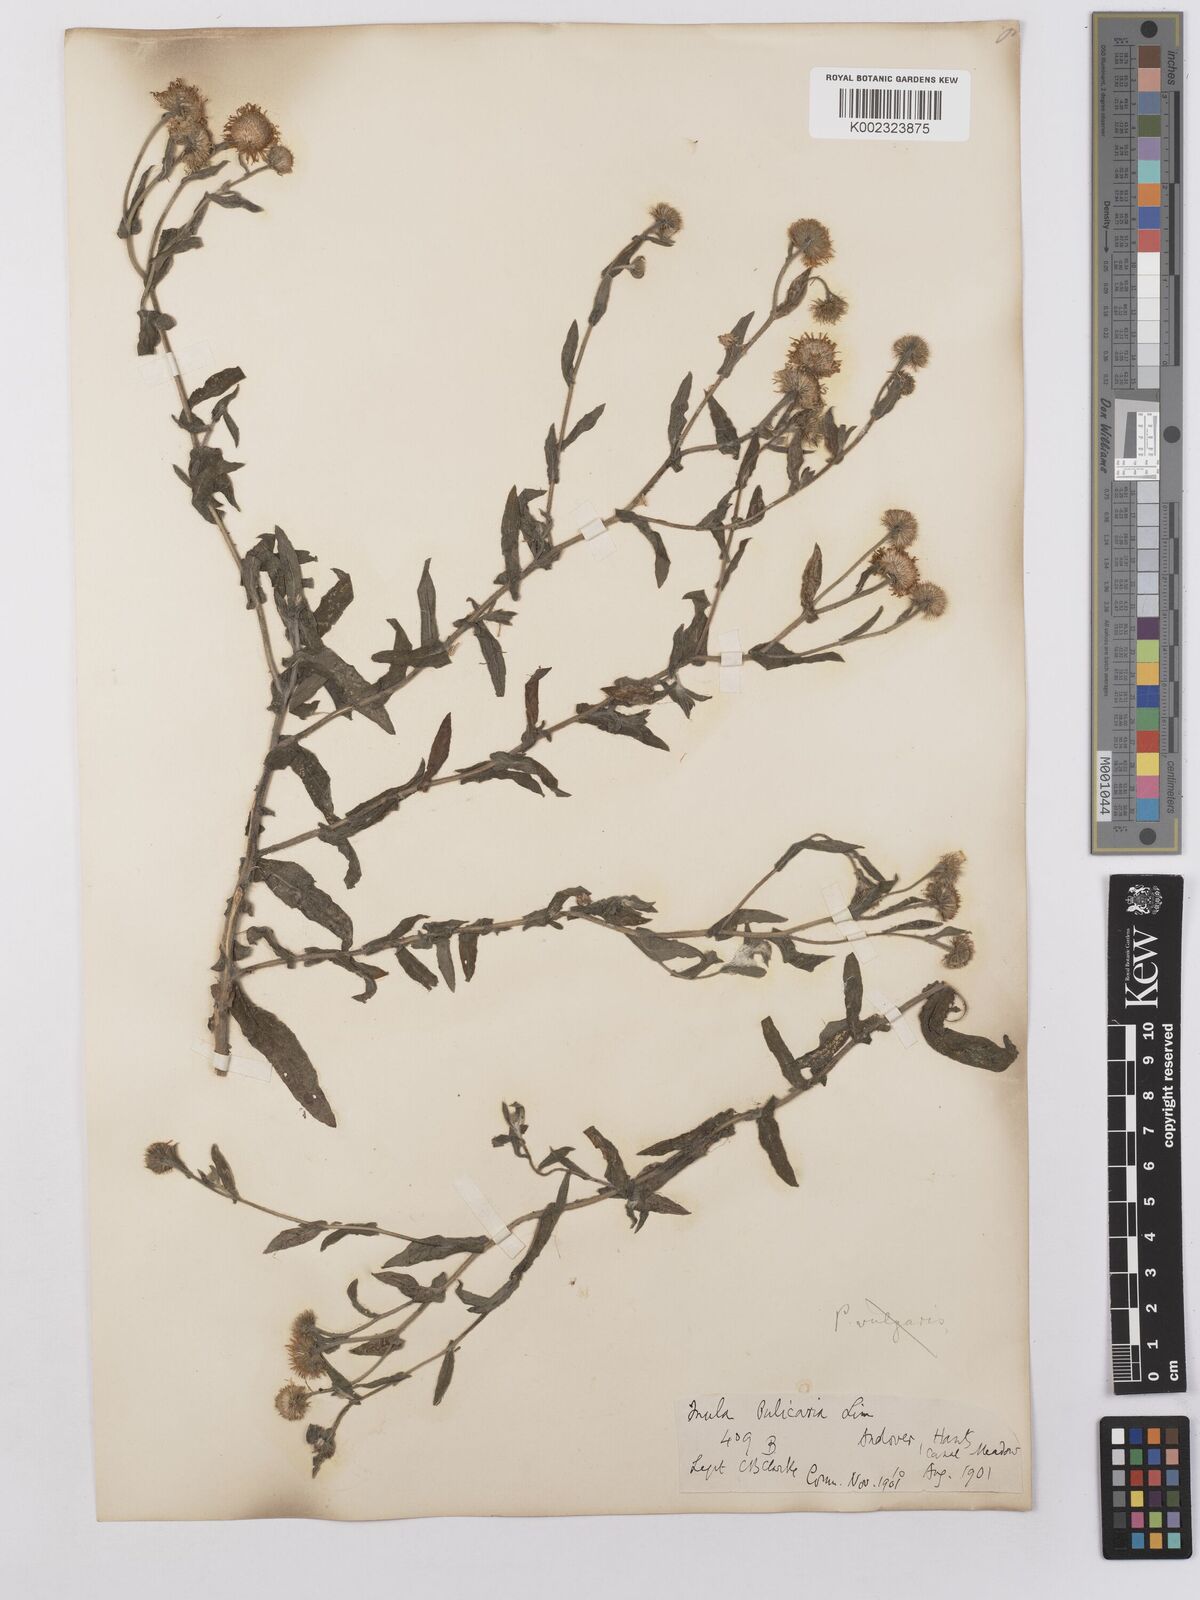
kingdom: Plantae
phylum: Tracheophyta
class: Magnoliopsida
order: Asterales
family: Asteraceae
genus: Pulicaria
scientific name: Pulicaria dysenterica
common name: Common fleabane
